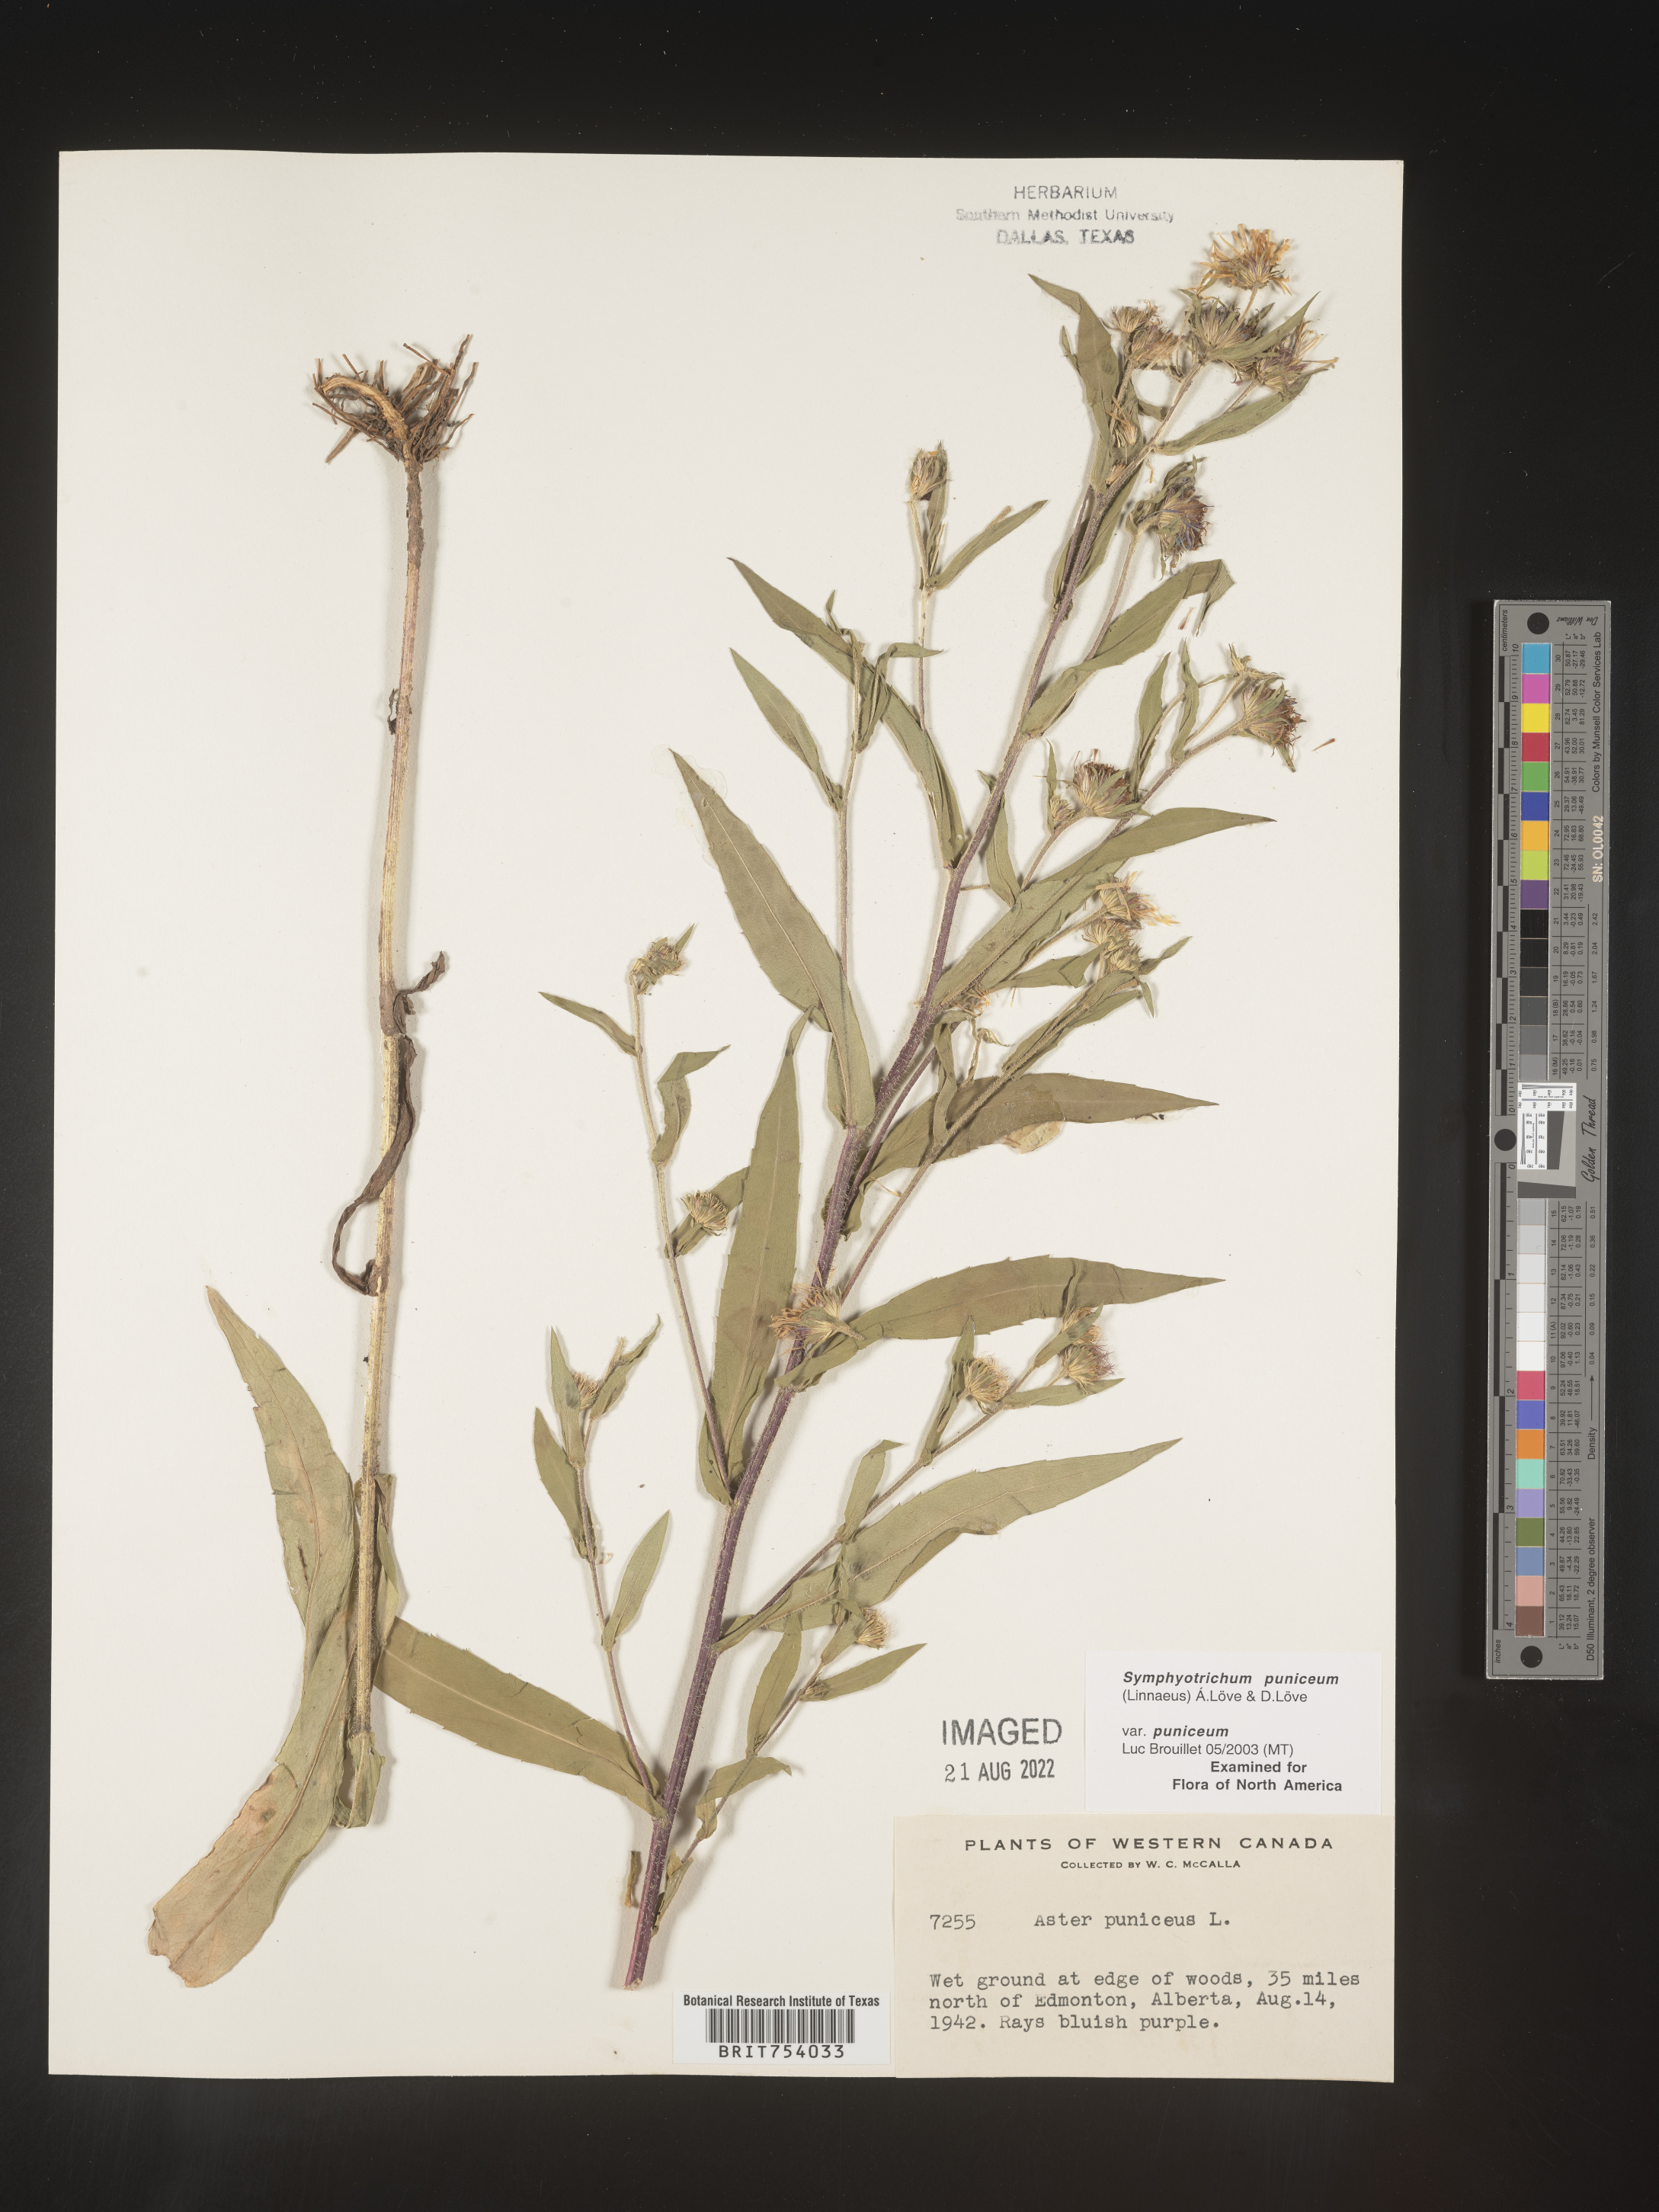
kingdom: Plantae
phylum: Tracheophyta
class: Magnoliopsida
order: Asterales
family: Asteraceae
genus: Symphyotrichum
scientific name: Symphyotrichum puniceum
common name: Bog aster
